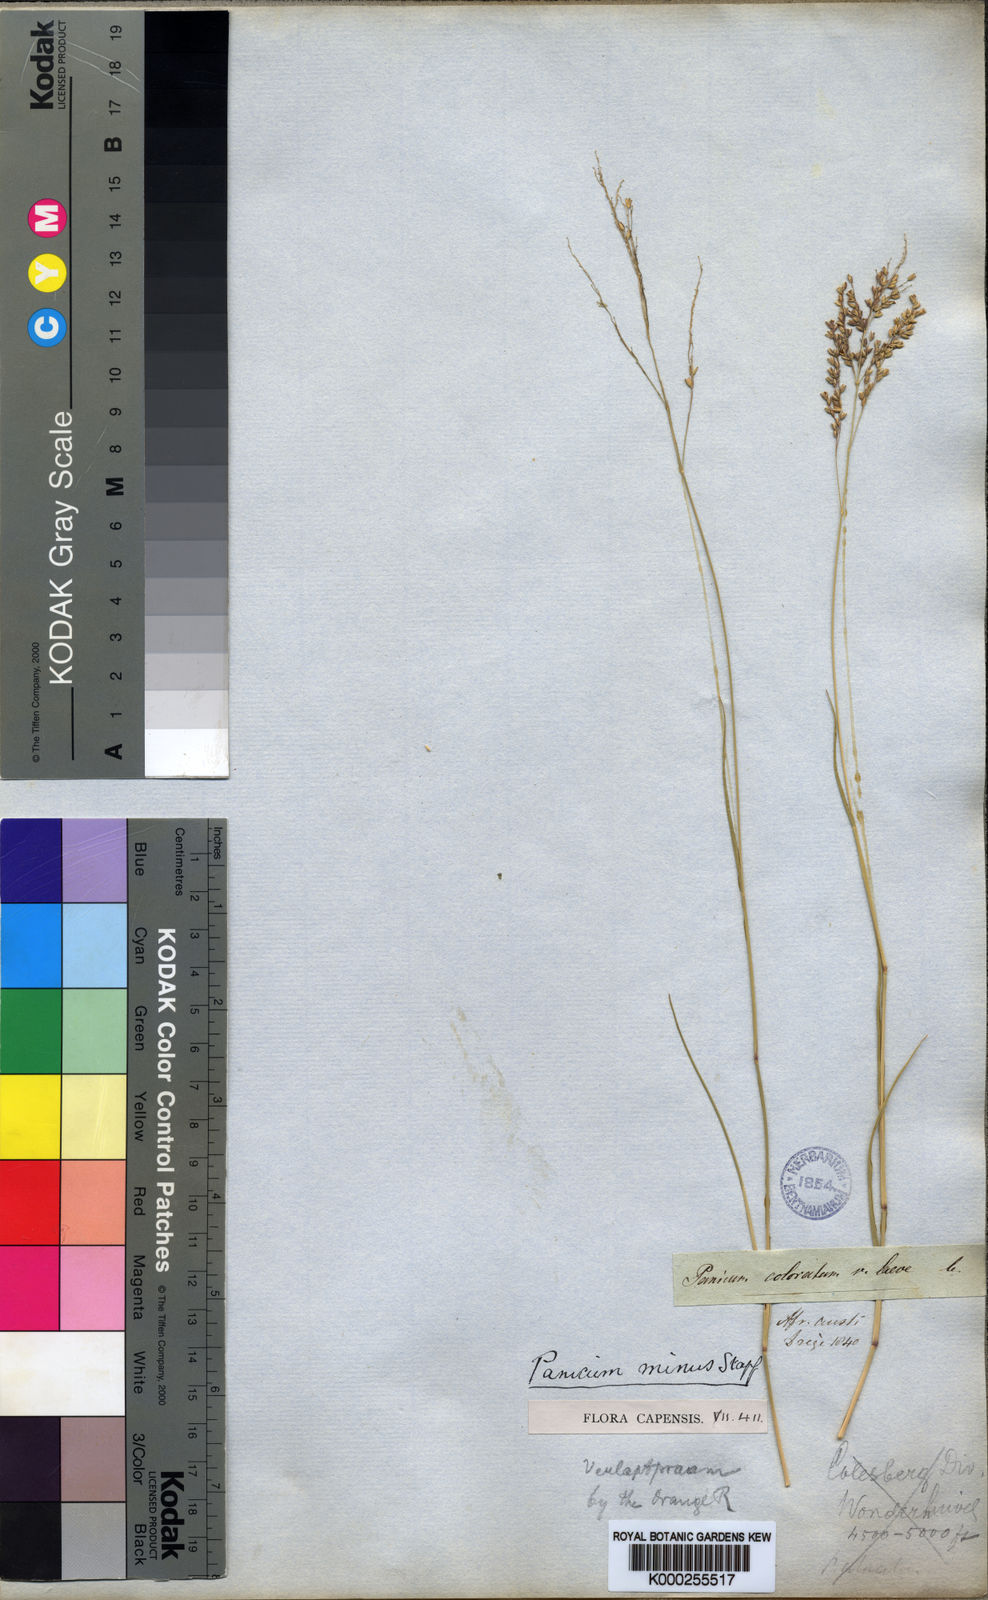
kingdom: Plantae
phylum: Tracheophyta
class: Liliopsida
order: Poales
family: Poaceae
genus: Panicum
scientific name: Panicum stapfianum
